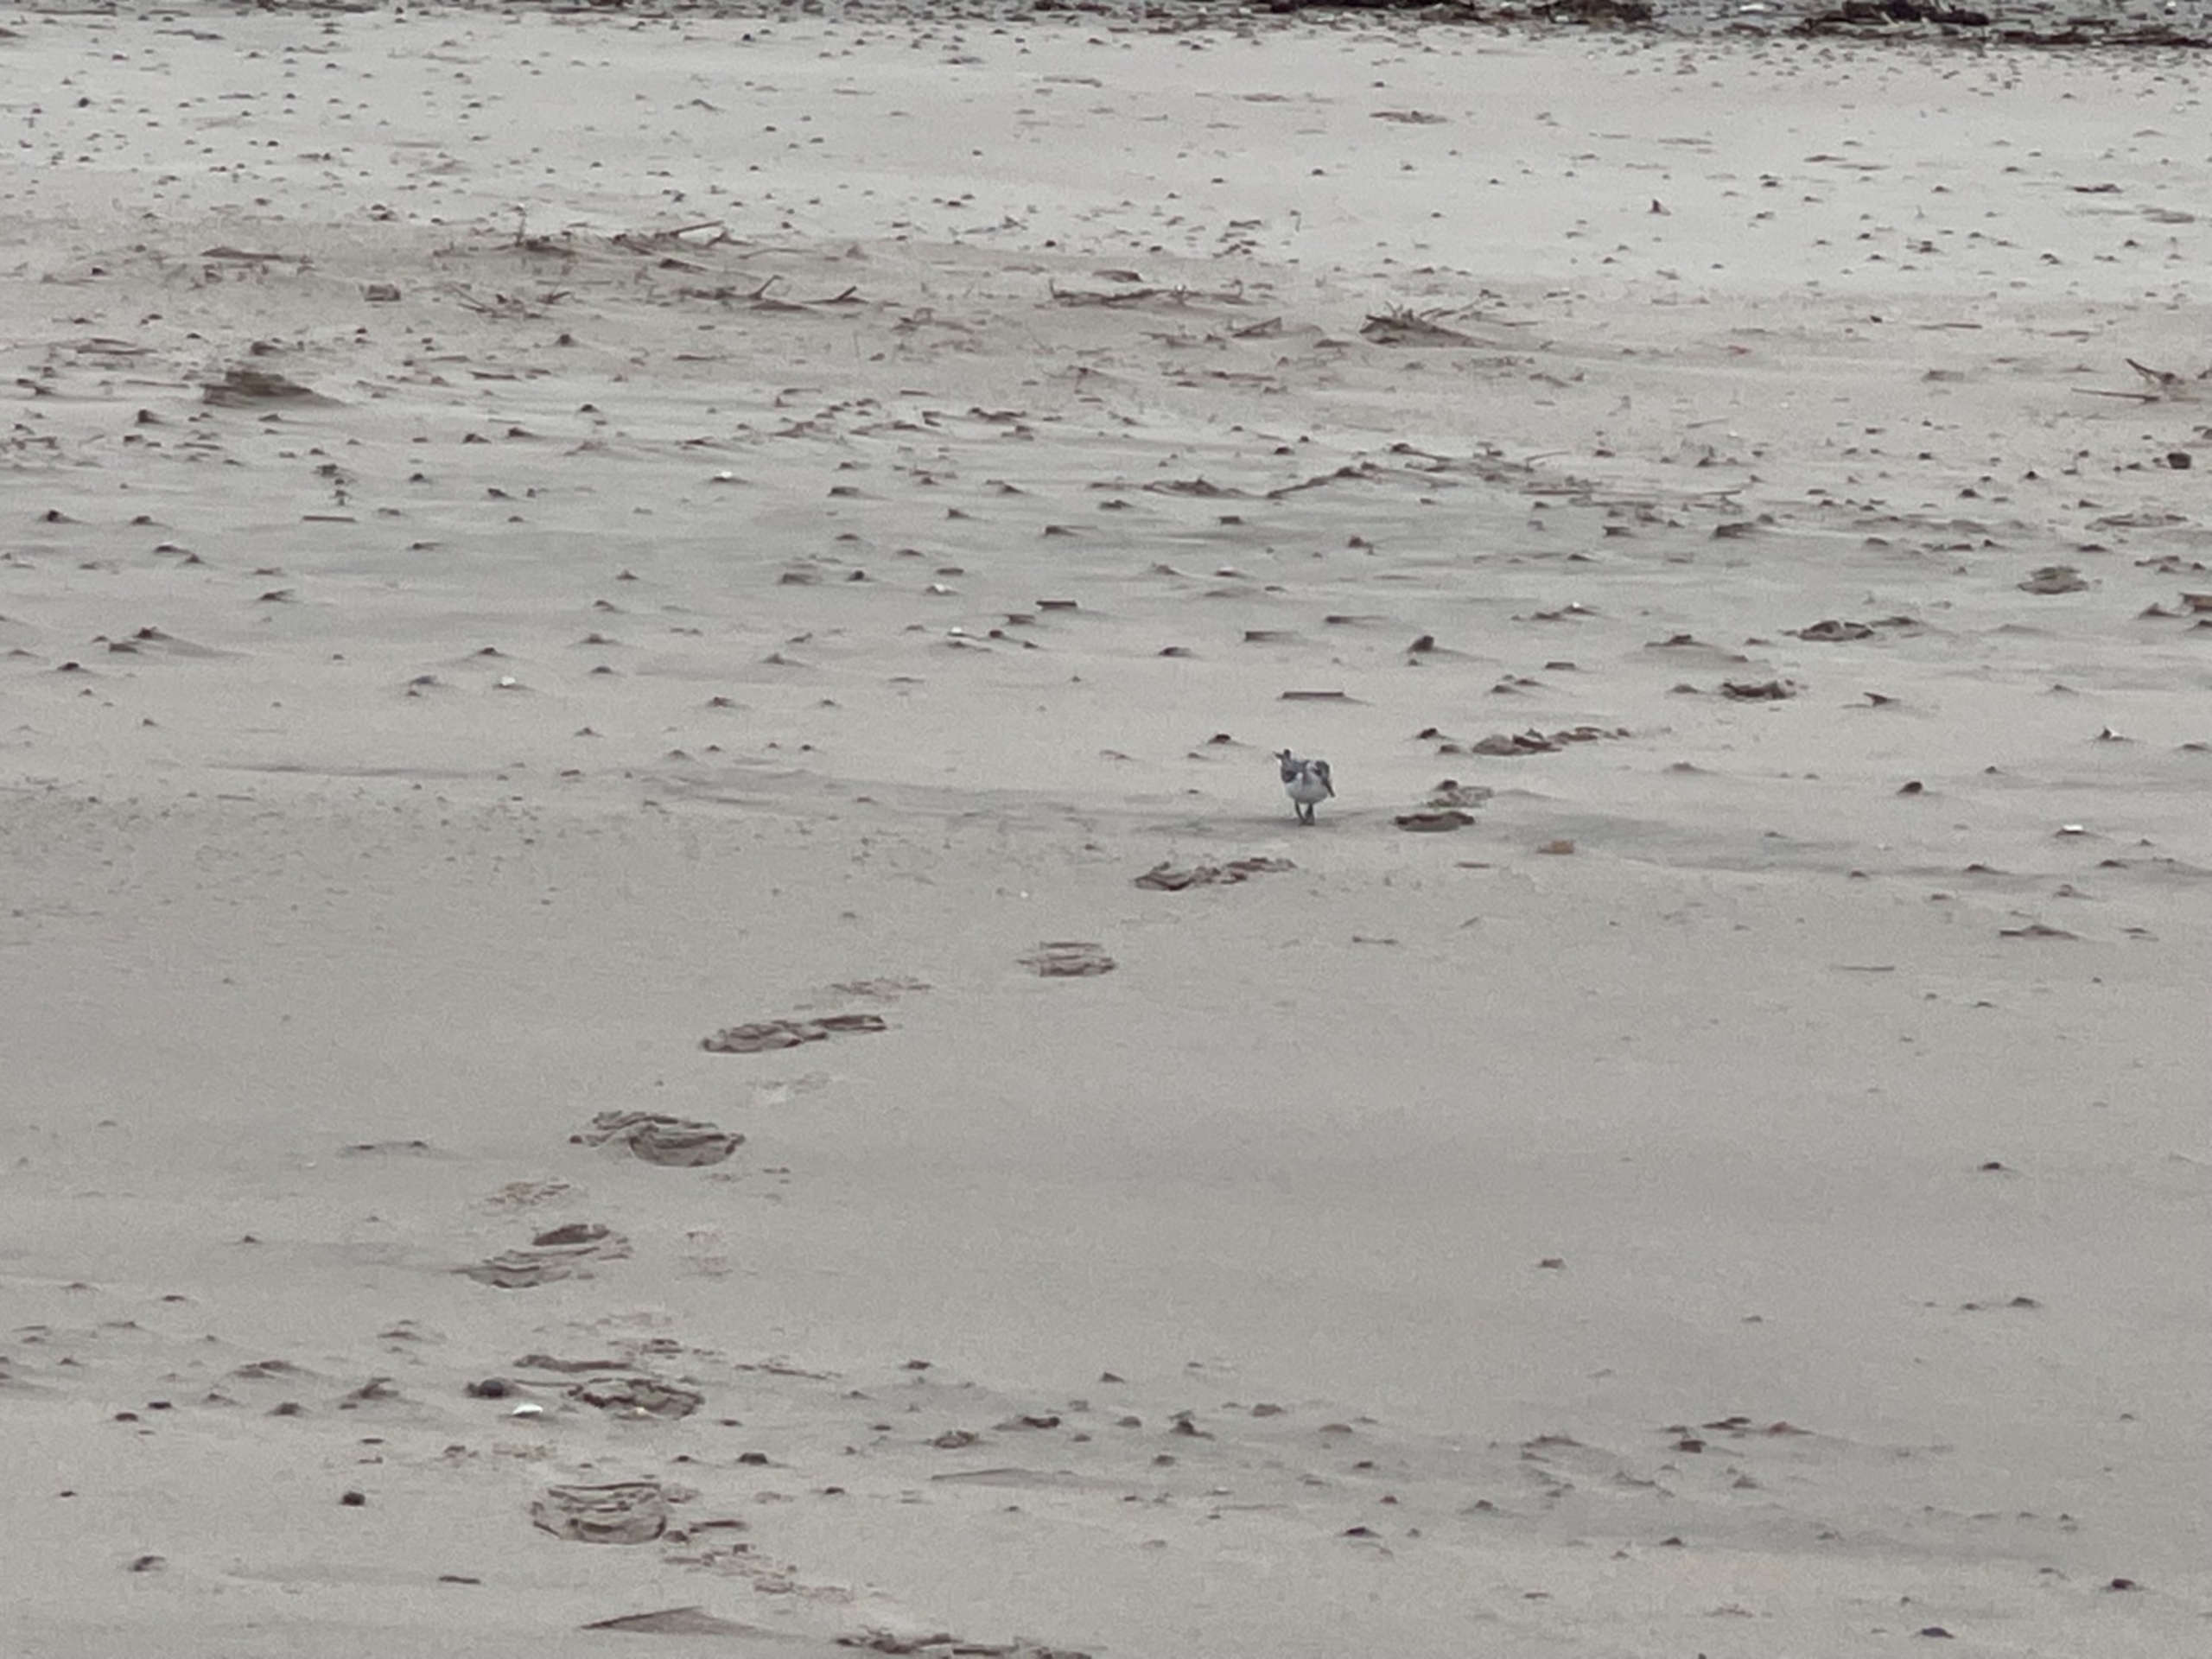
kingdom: Animalia
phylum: Chordata
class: Aves
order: Charadriiformes
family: Scolopacidae
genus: Calidris
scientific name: Calidris alba
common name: Sandløber
